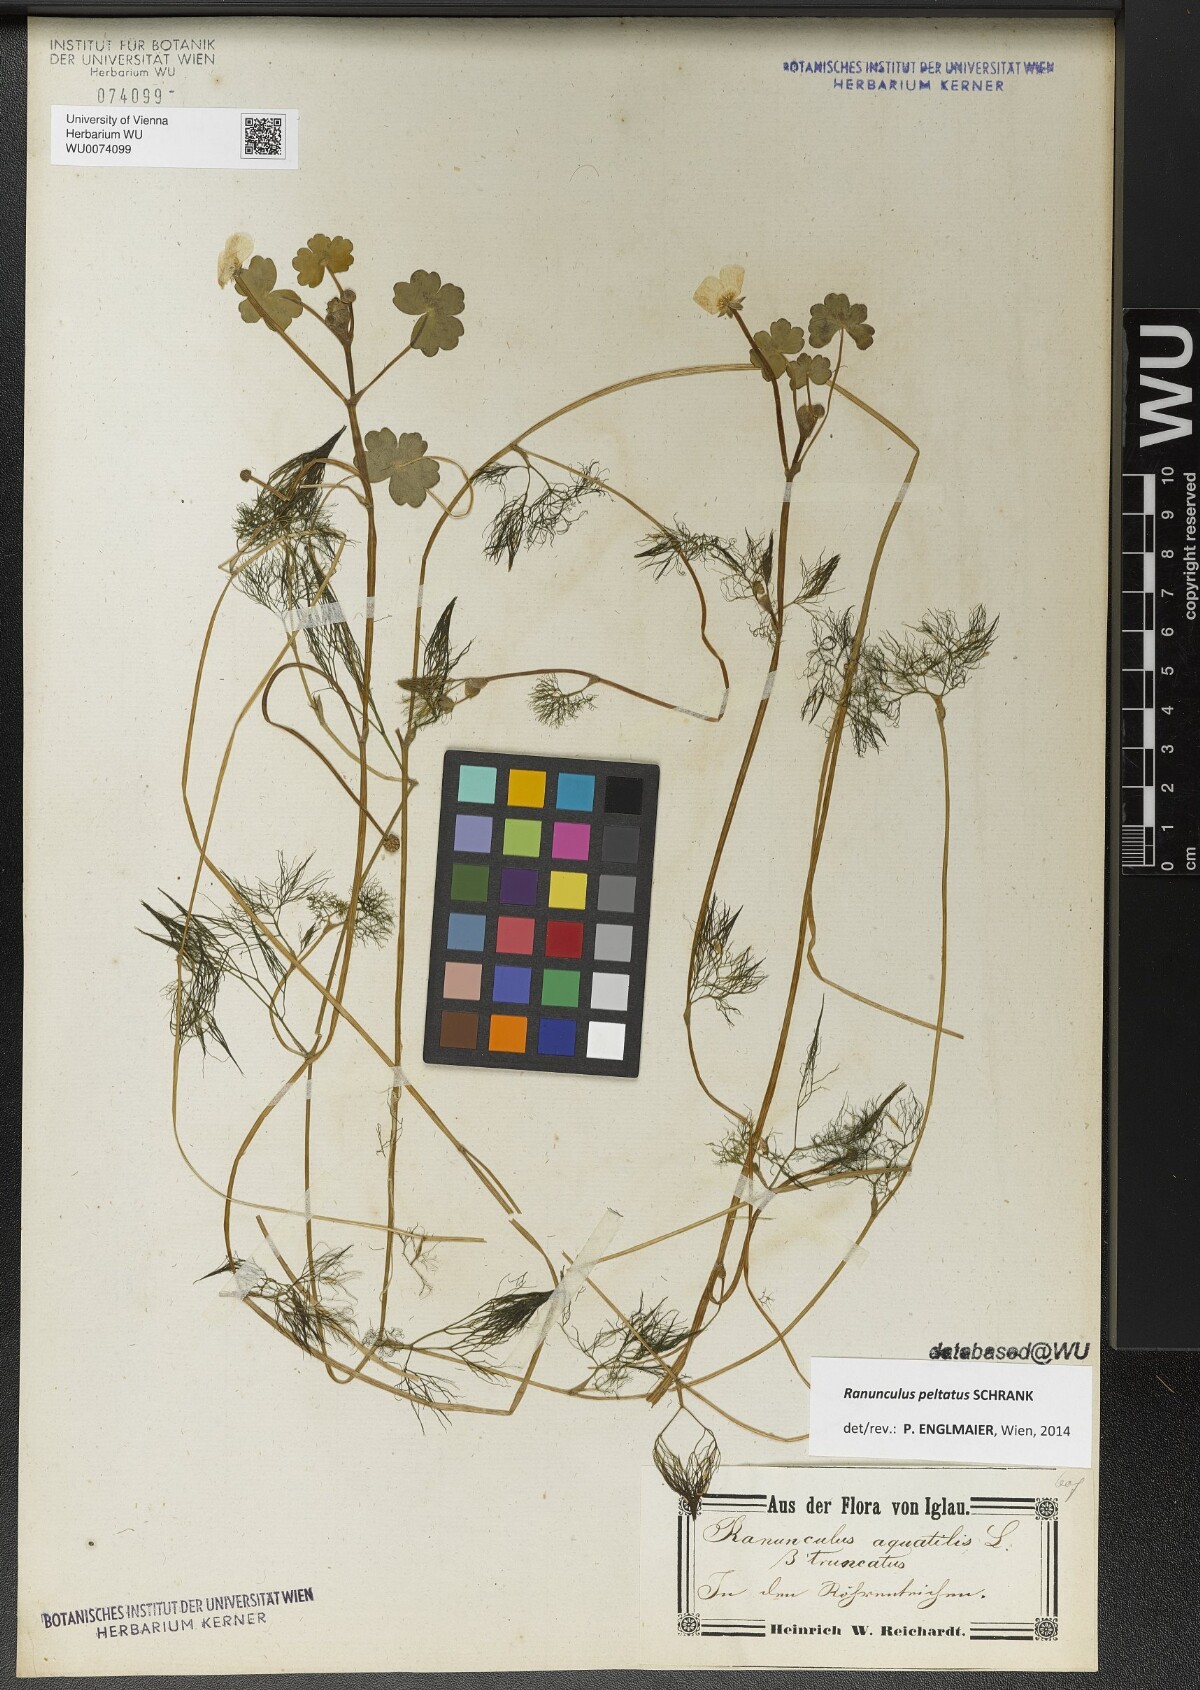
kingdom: Plantae
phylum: Tracheophyta
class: Magnoliopsida
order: Ranunculales
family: Ranunculaceae
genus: Ranunculus
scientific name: Ranunculus peltatus
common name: Pond water-crowfoot
